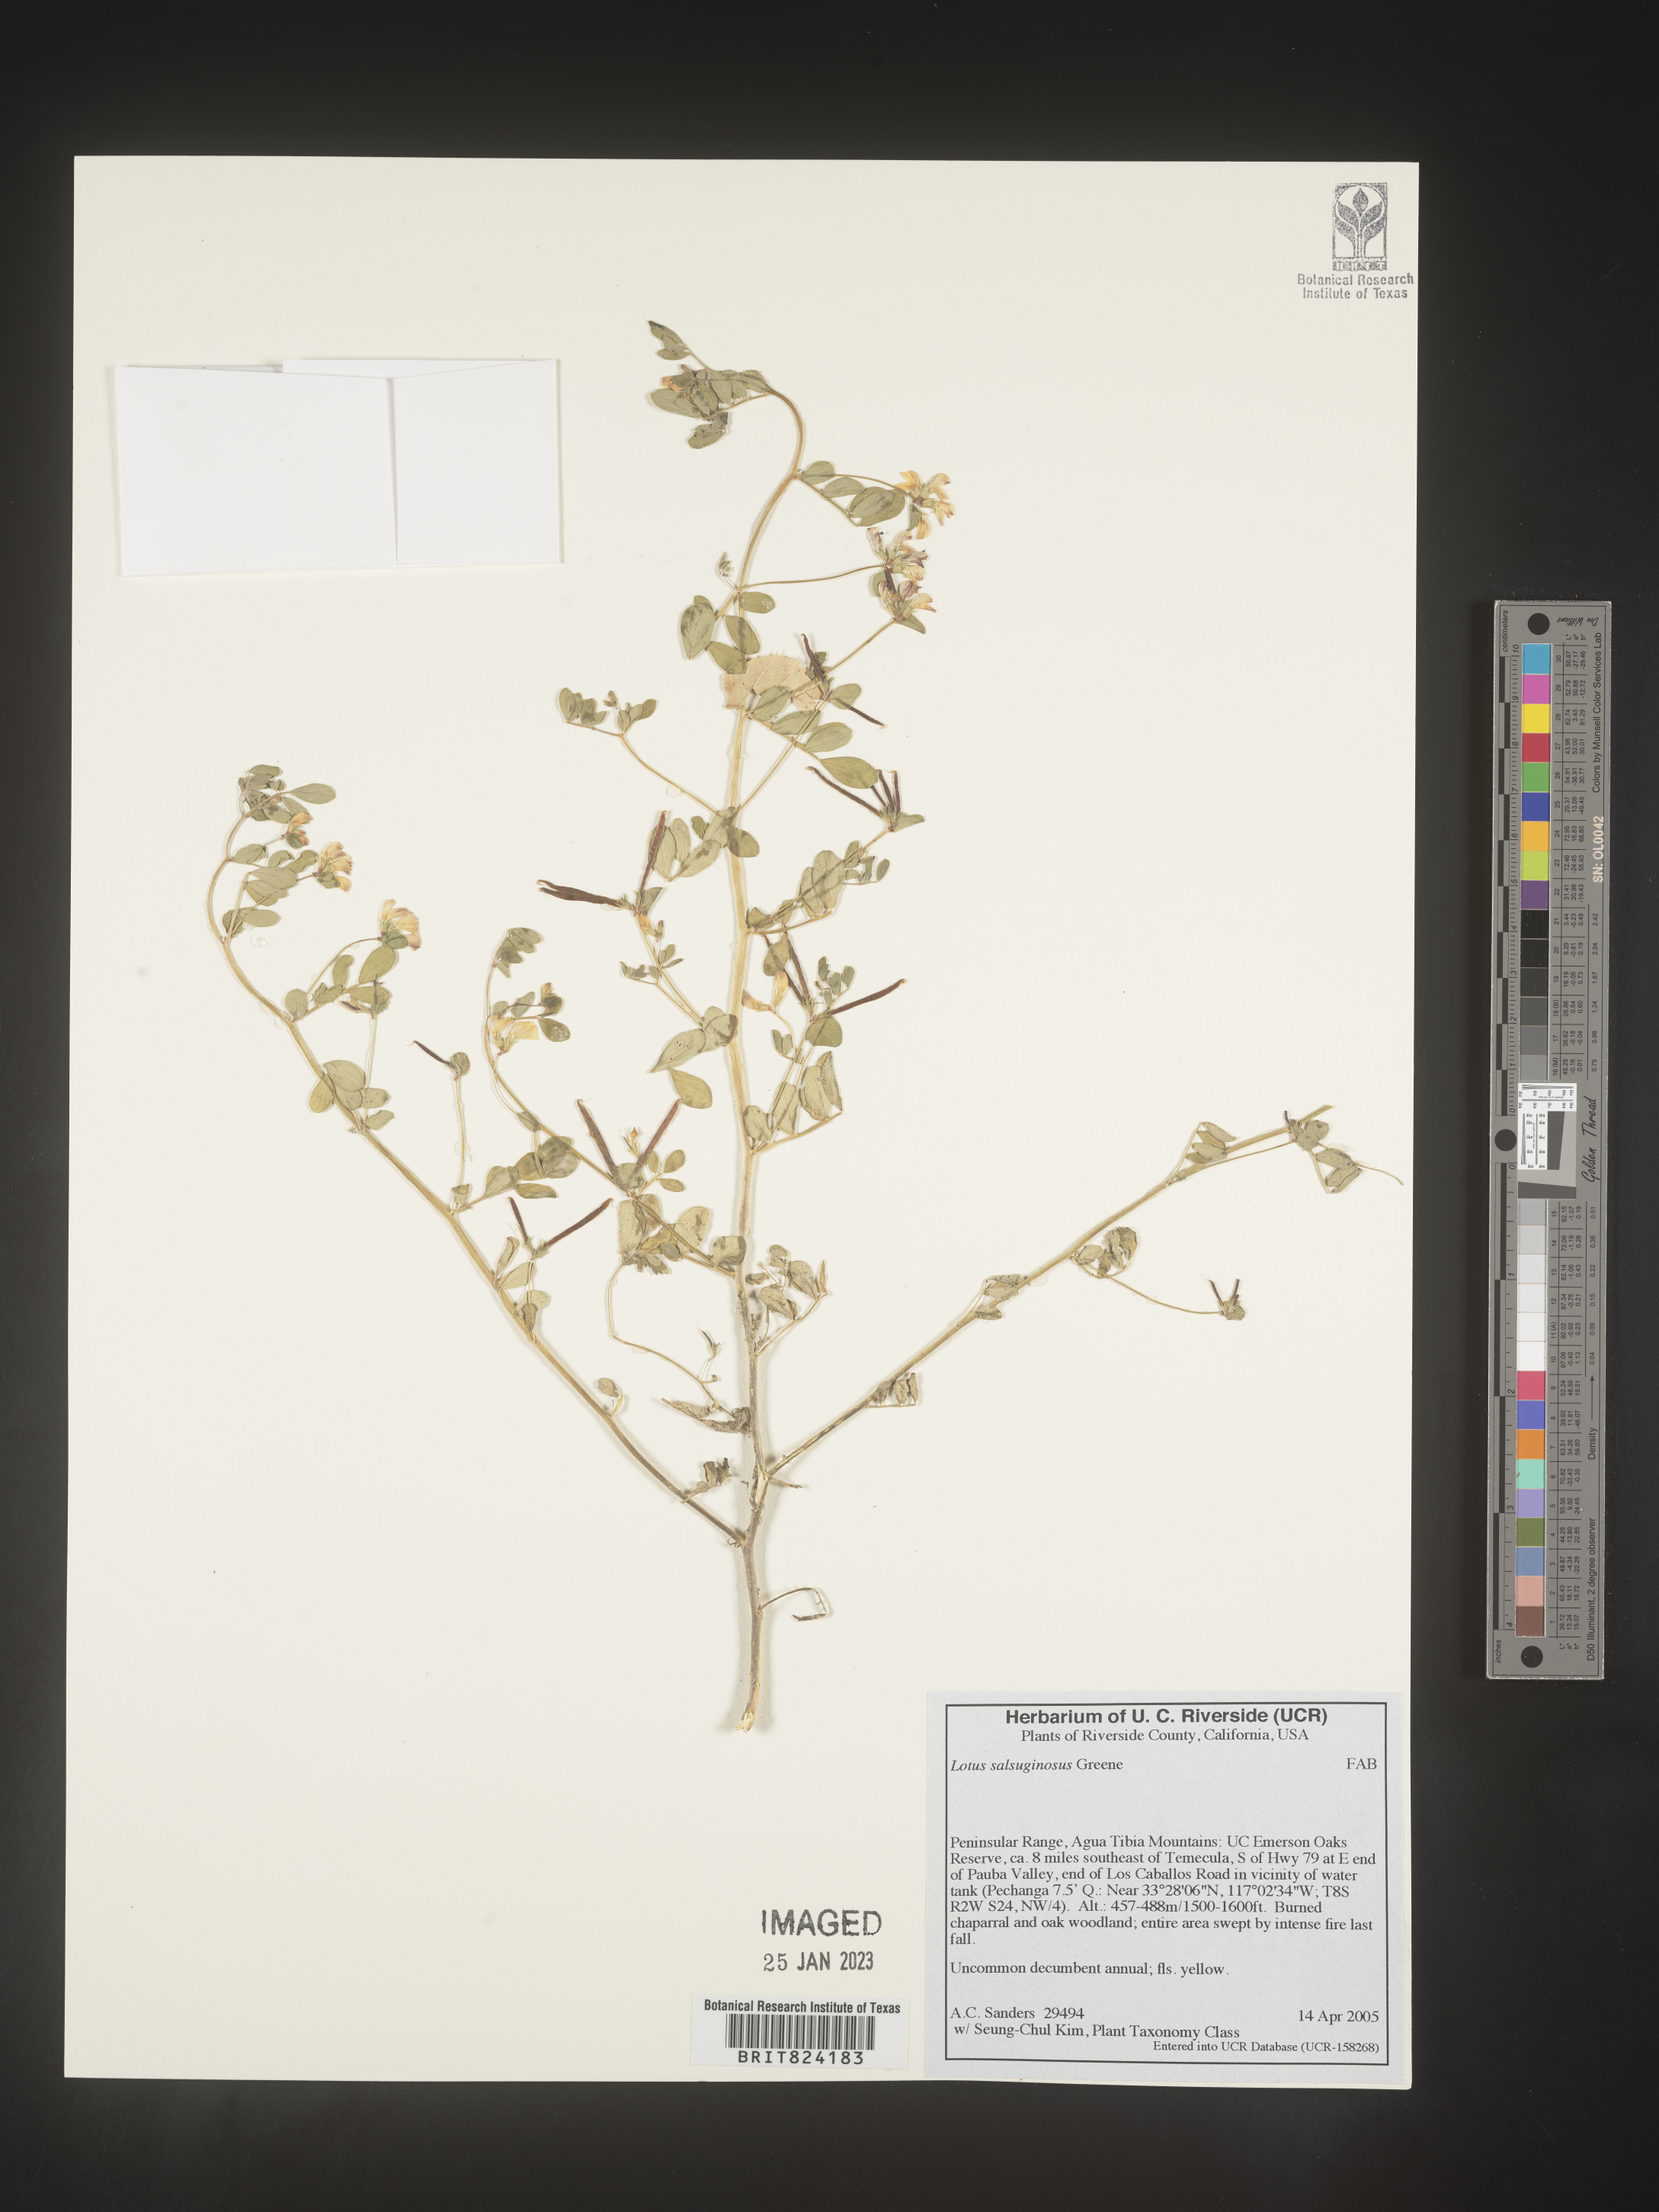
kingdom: Plantae
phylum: Tracheophyta
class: Magnoliopsida
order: Fabales
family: Fabaceae
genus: Lotus
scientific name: Lotus
